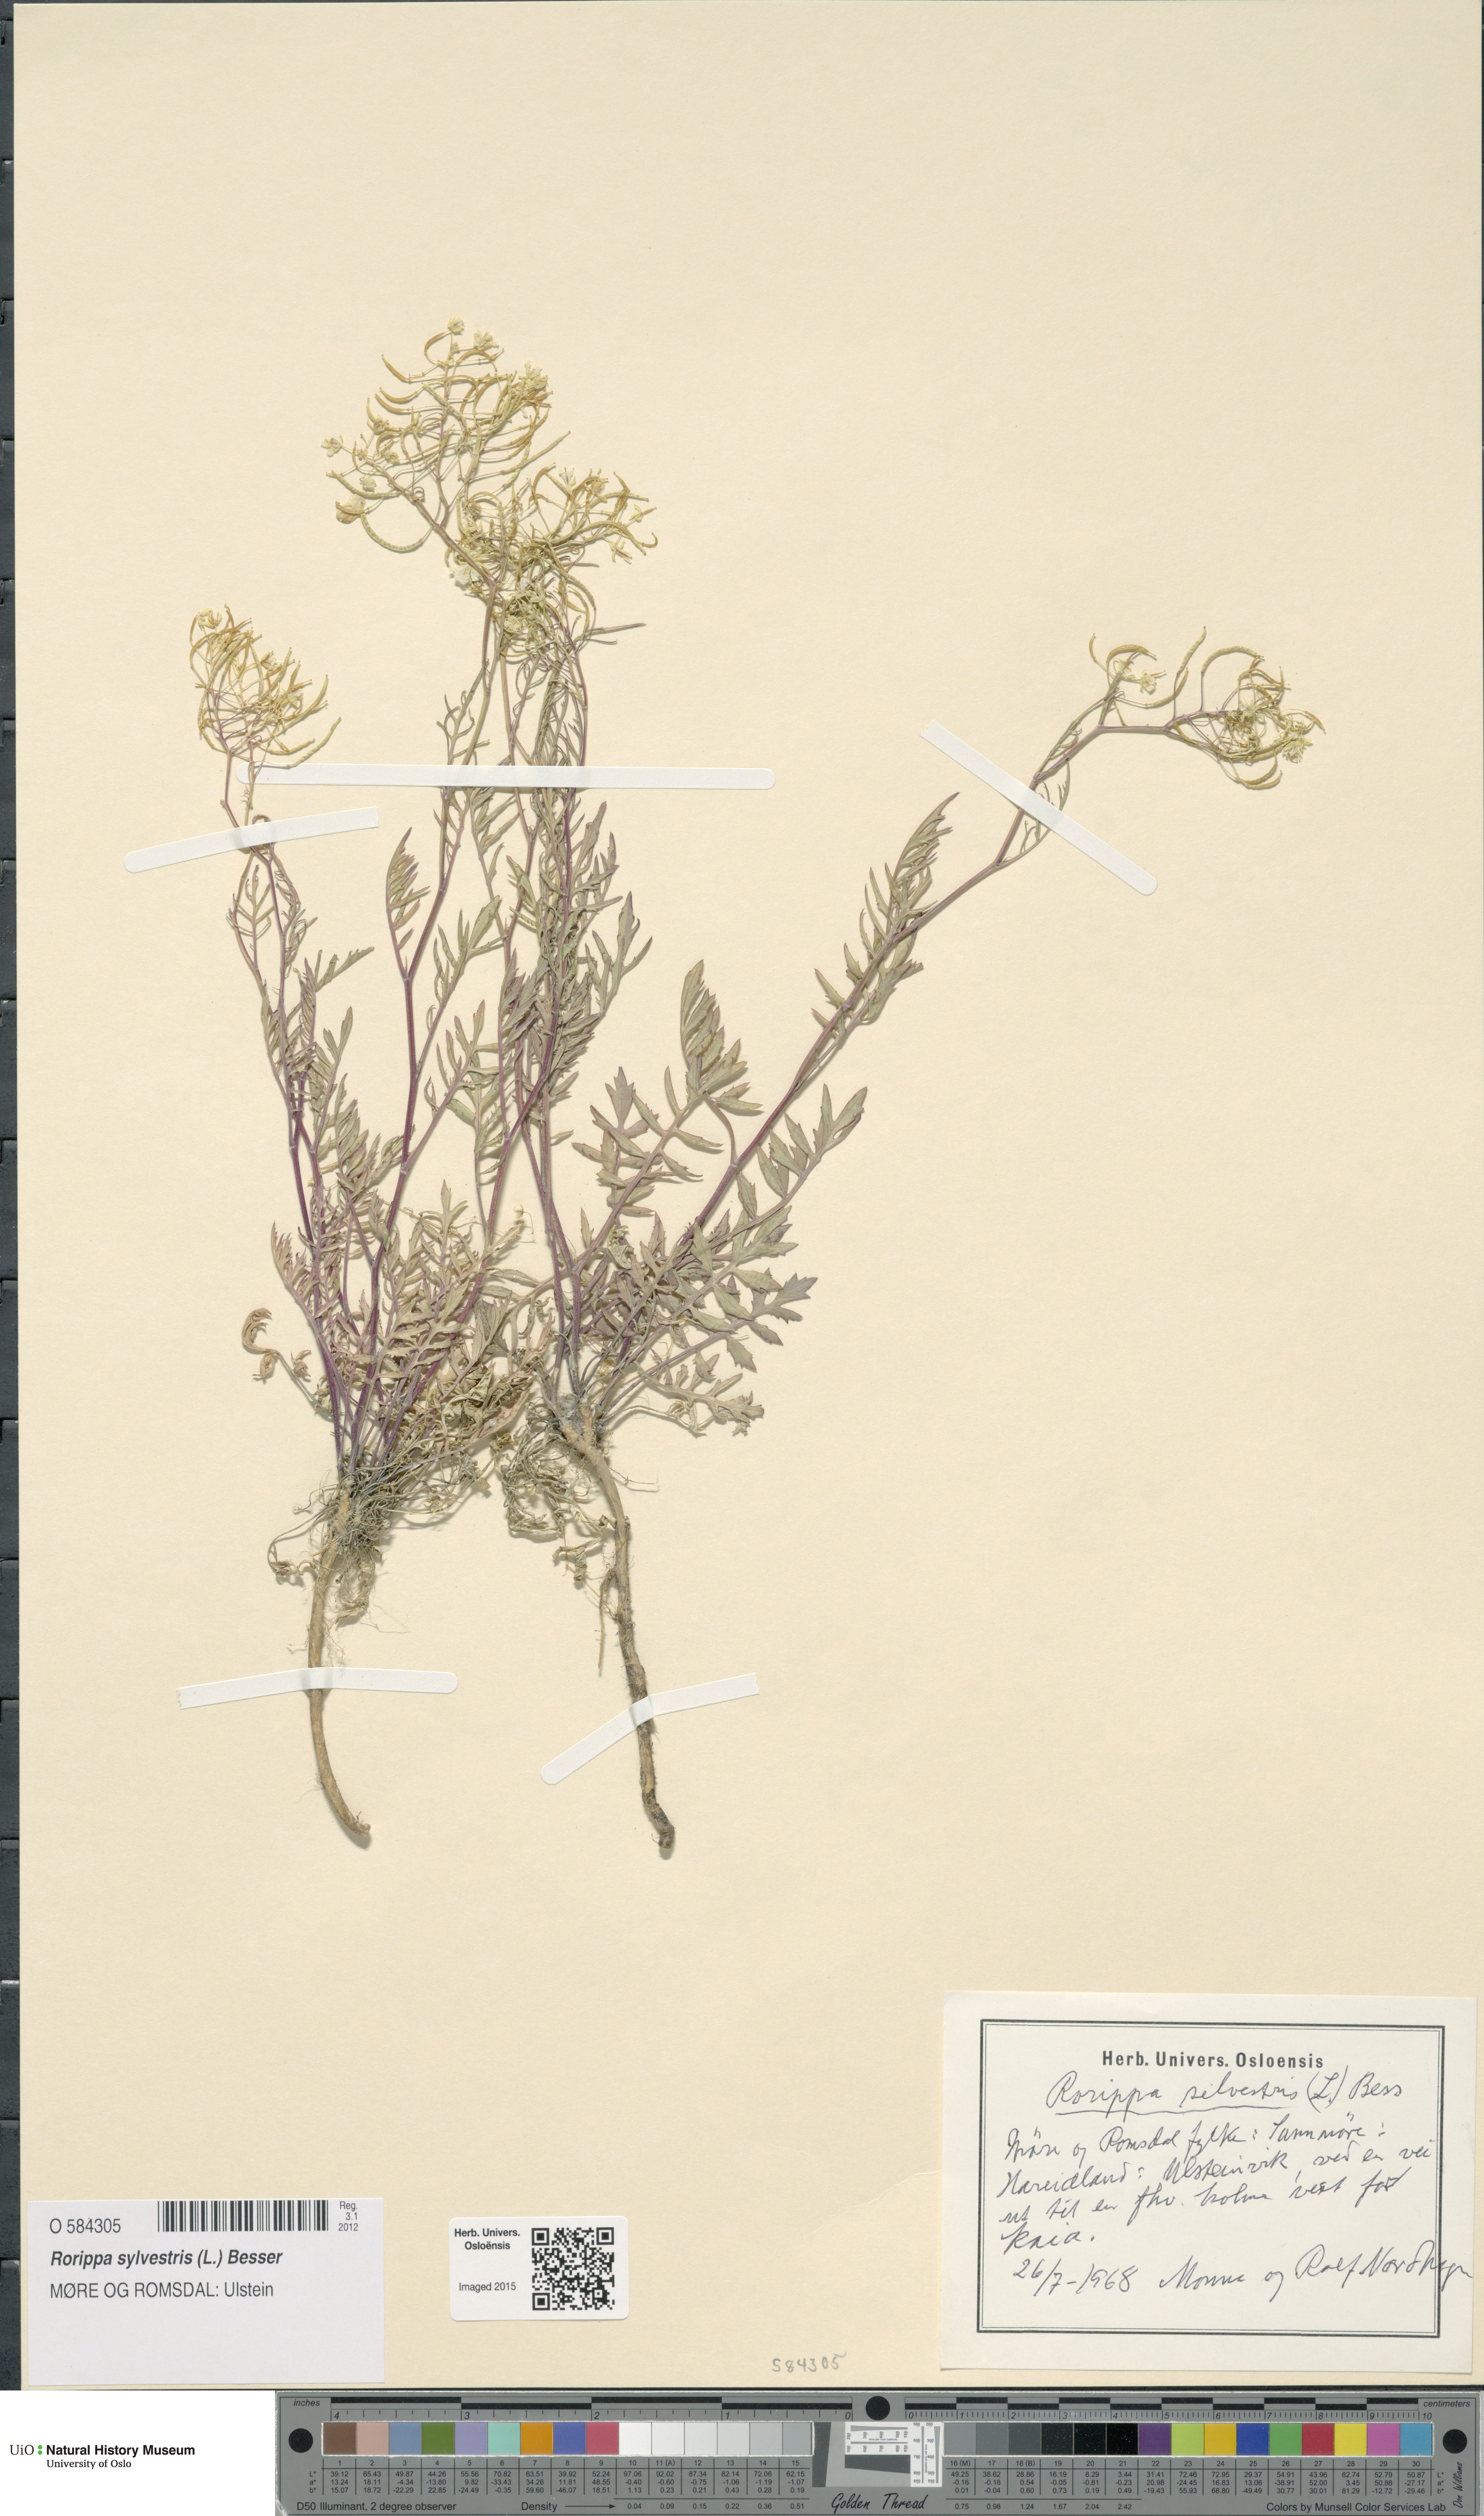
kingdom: Plantae
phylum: Tracheophyta
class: Magnoliopsida
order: Brassicales
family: Brassicaceae
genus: Rorippa
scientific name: Rorippa sylvestris
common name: Creeping yellowcress
